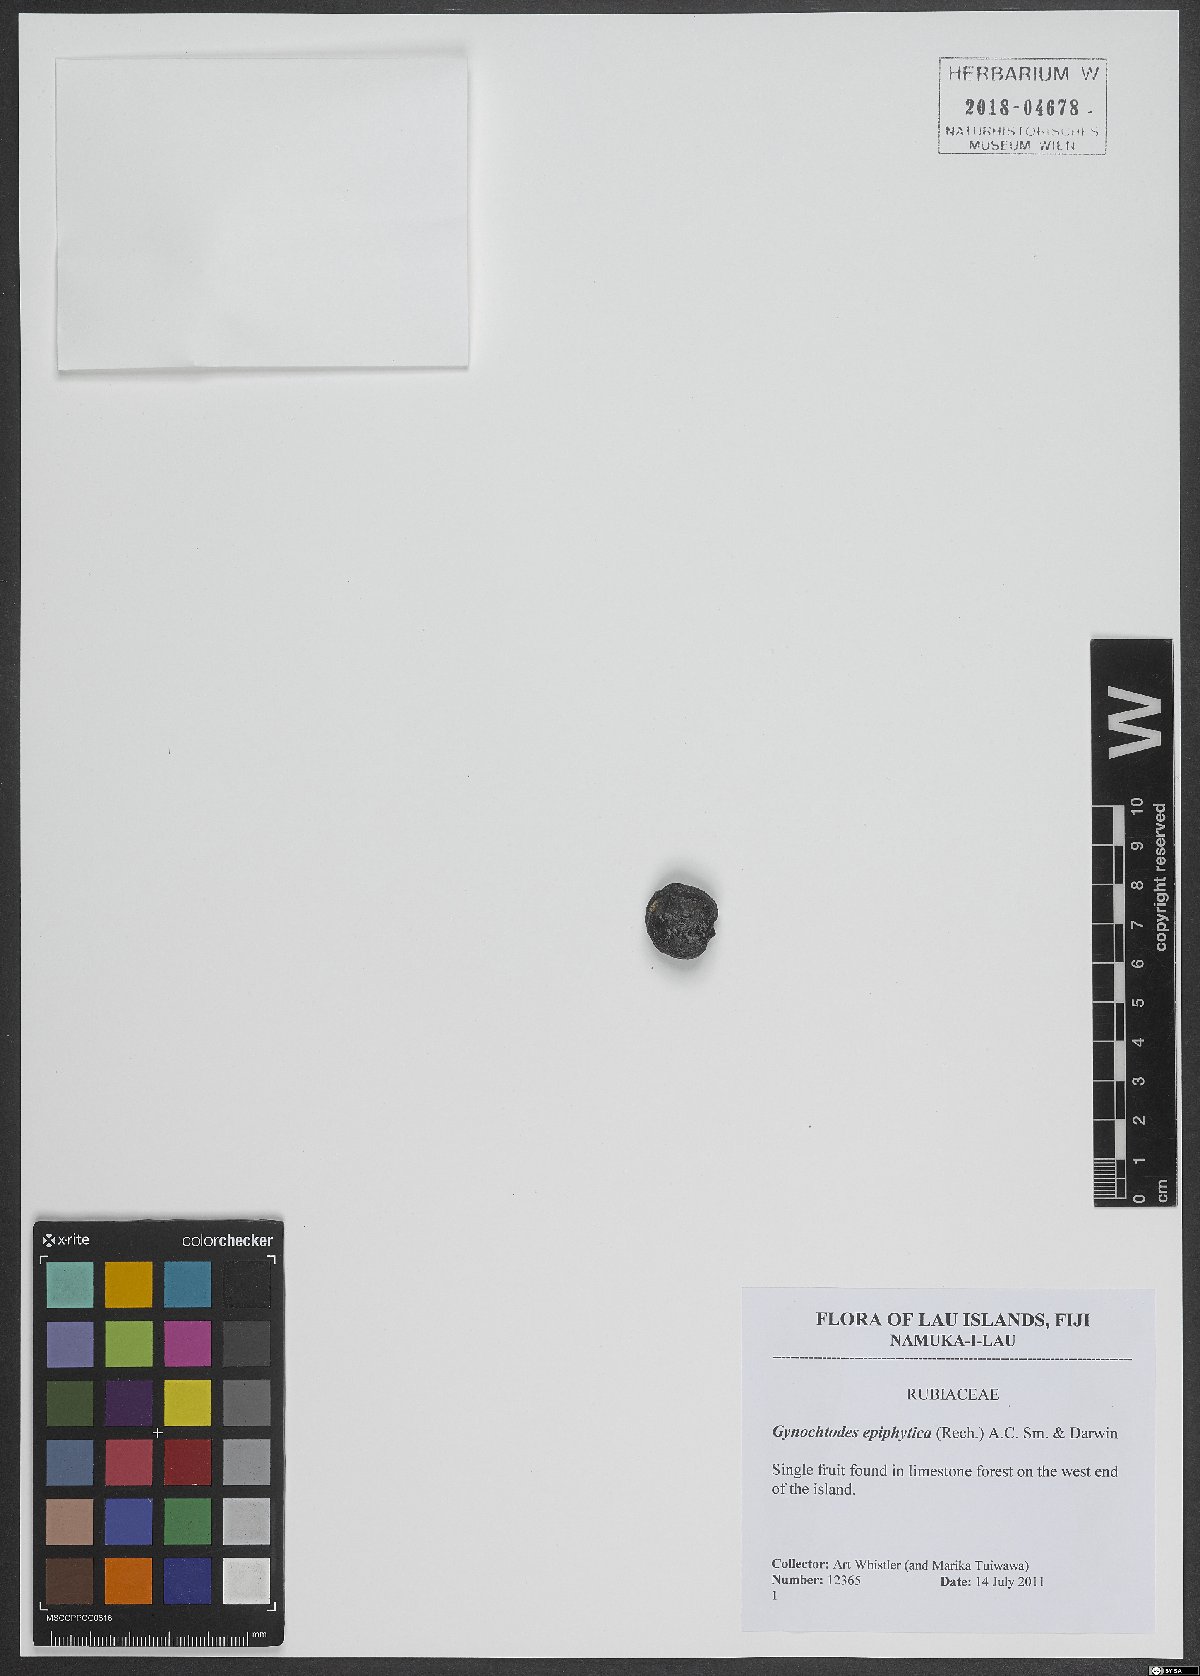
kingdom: Plantae
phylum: Tracheophyta
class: Magnoliopsida
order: Gentianales
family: Rubiaceae
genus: Gynochthodes
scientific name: Gynochthodes epiphytica
